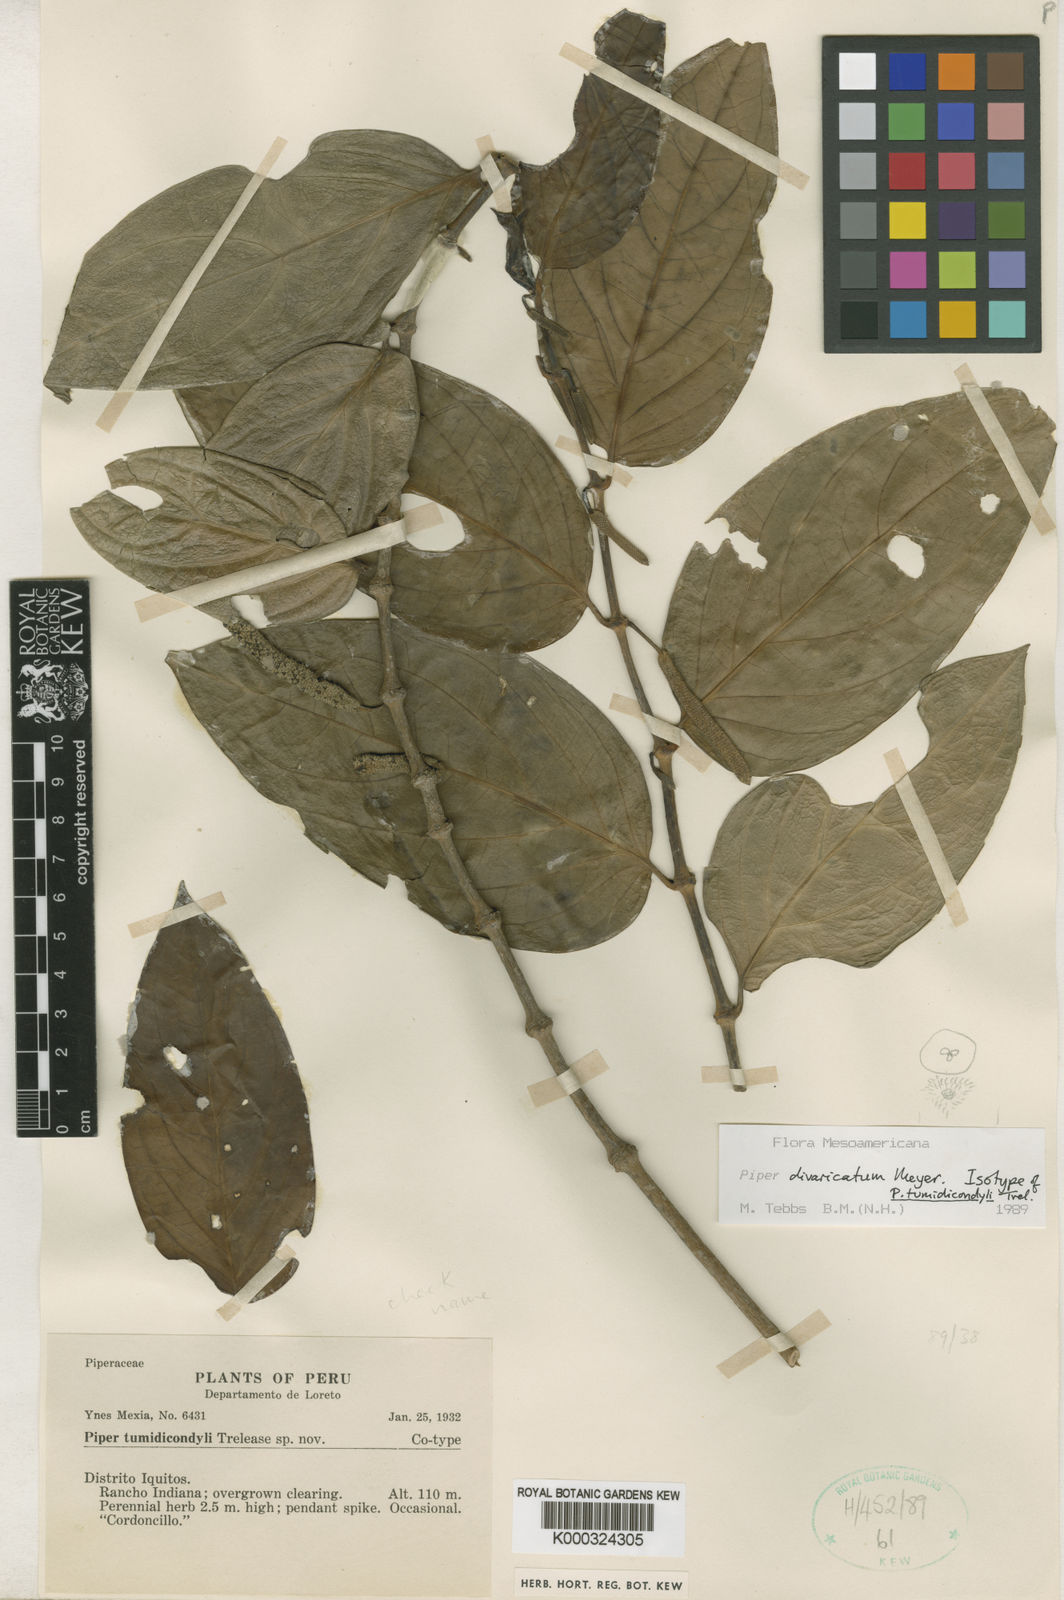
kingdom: Plantae
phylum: Tracheophyta
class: Magnoliopsida
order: Piperales
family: Piperaceae
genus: Piper
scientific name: Piper divaricatum
